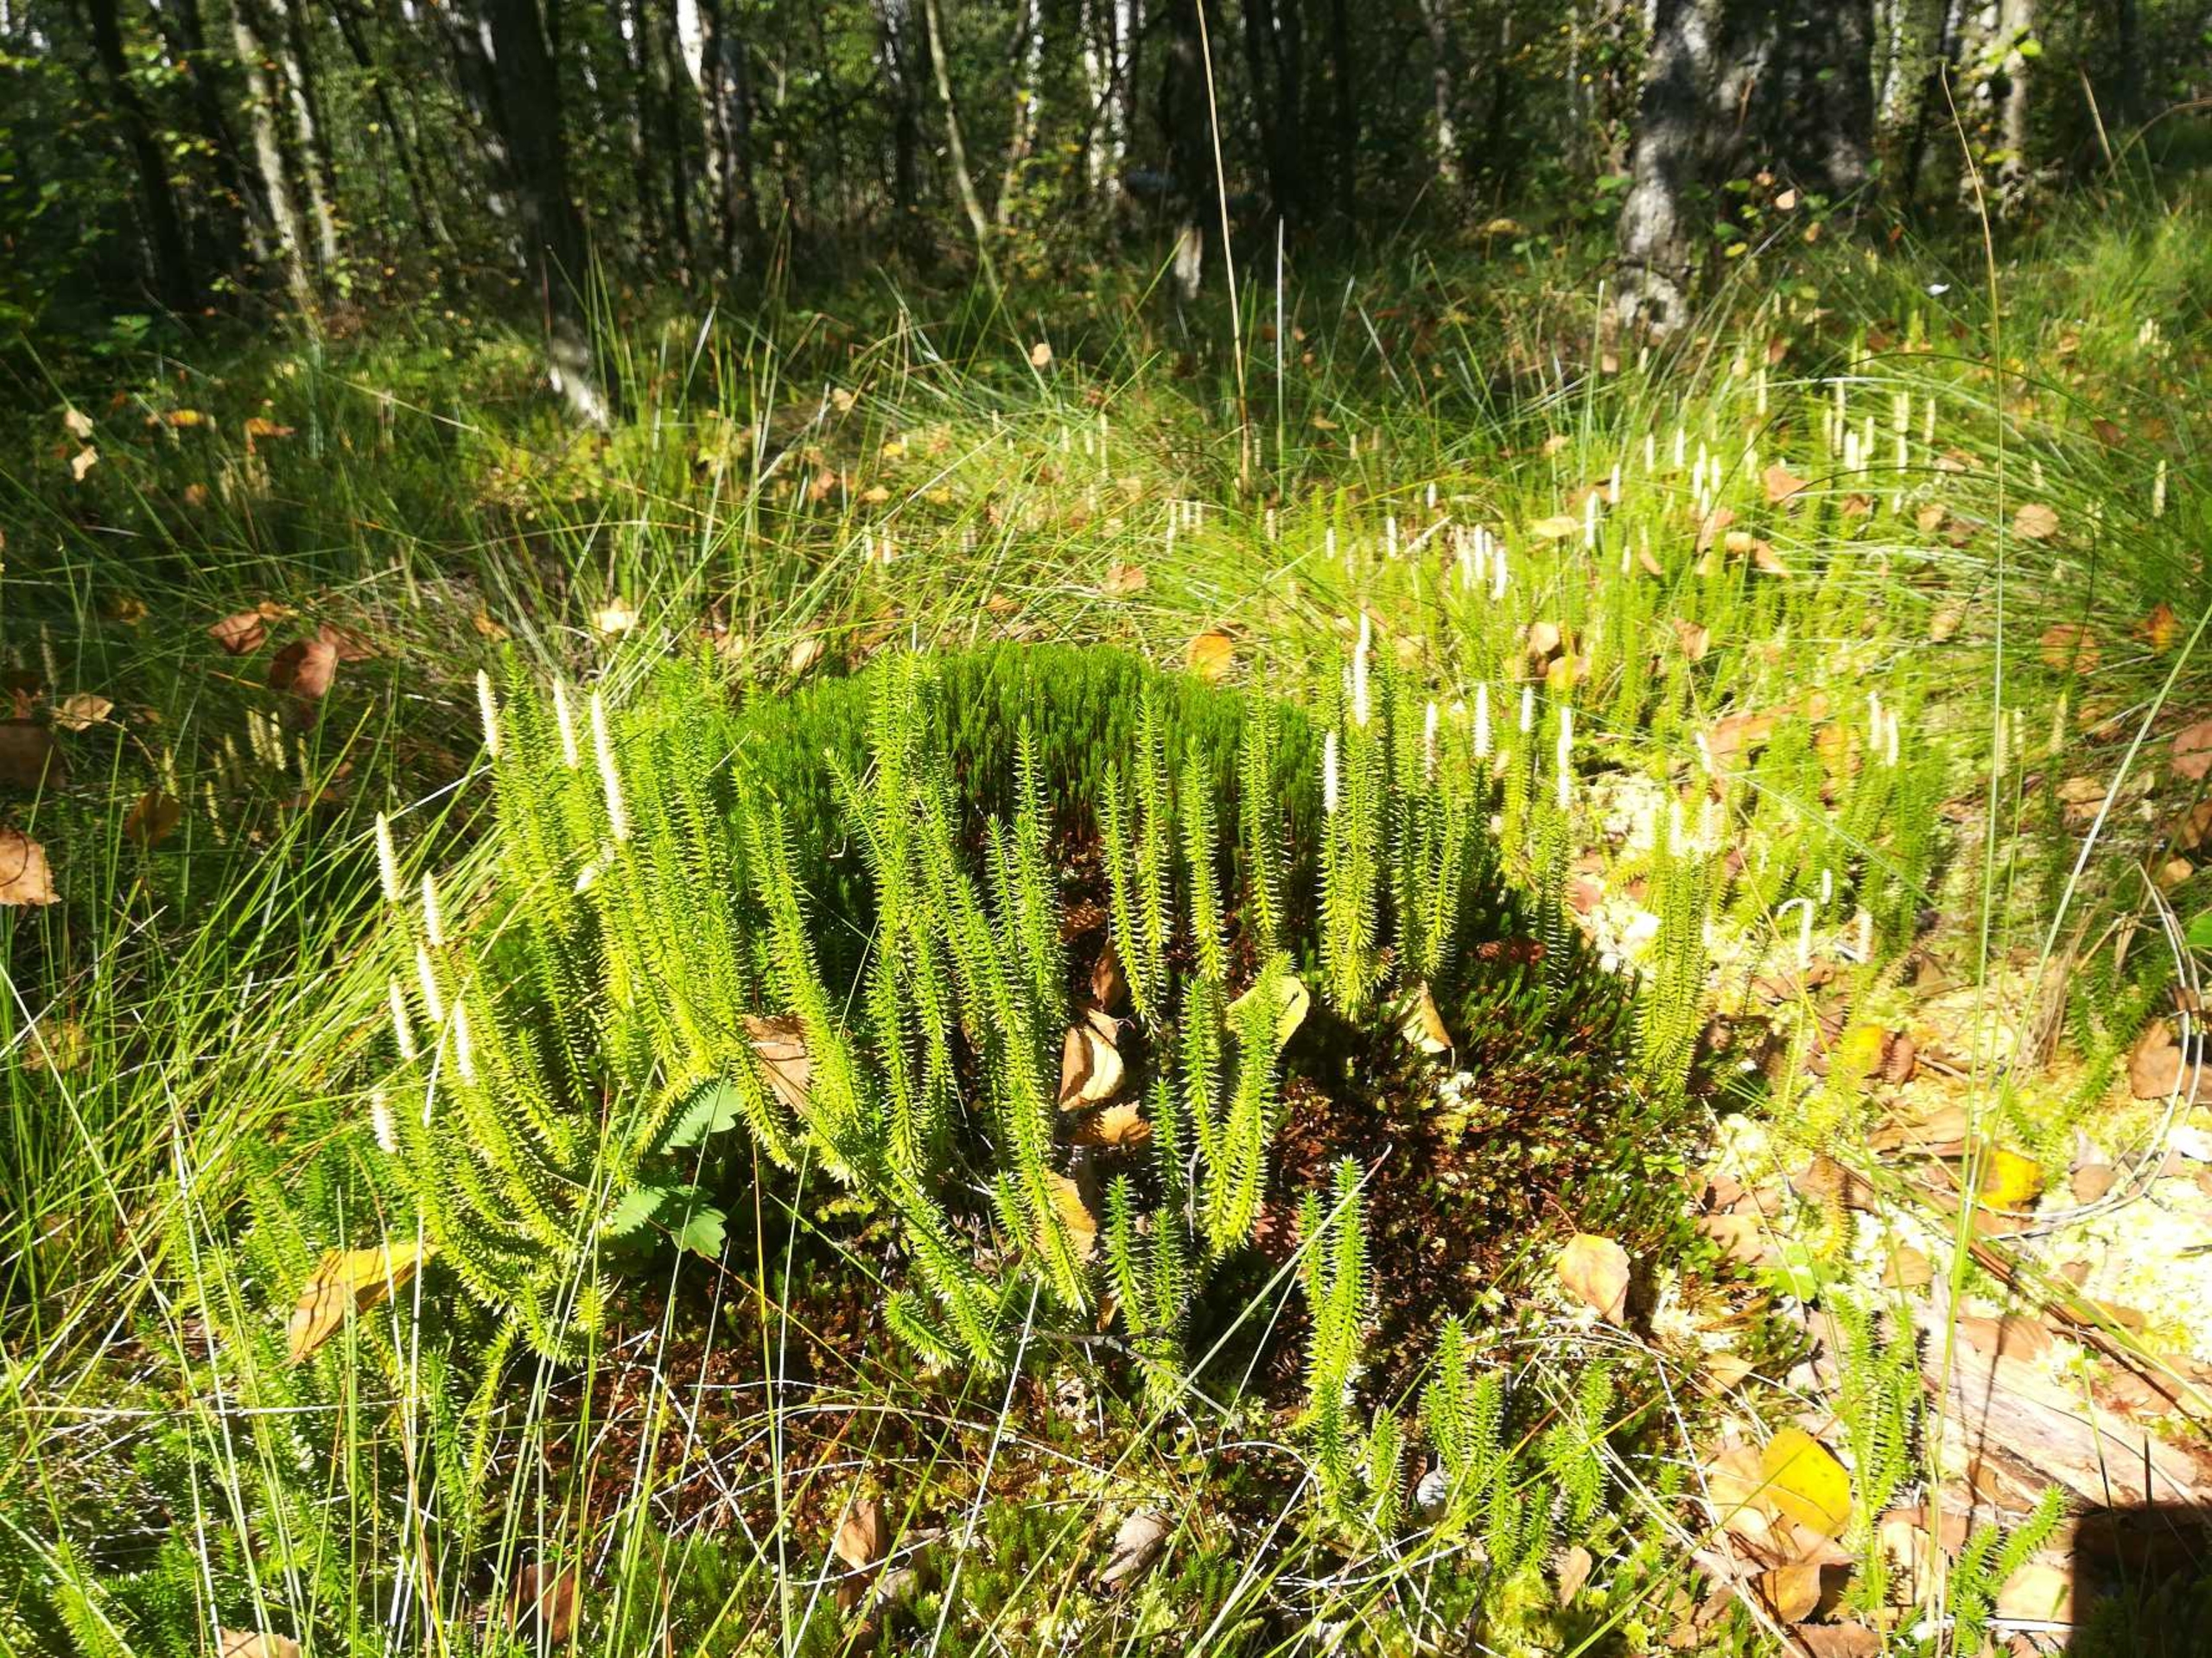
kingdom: Plantae
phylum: Tracheophyta
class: Lycopodiopsida
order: Lycopodiales
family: Lycopodiaceae
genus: Spinulum
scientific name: Spinulum annotinum
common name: Femradet ulvefod
